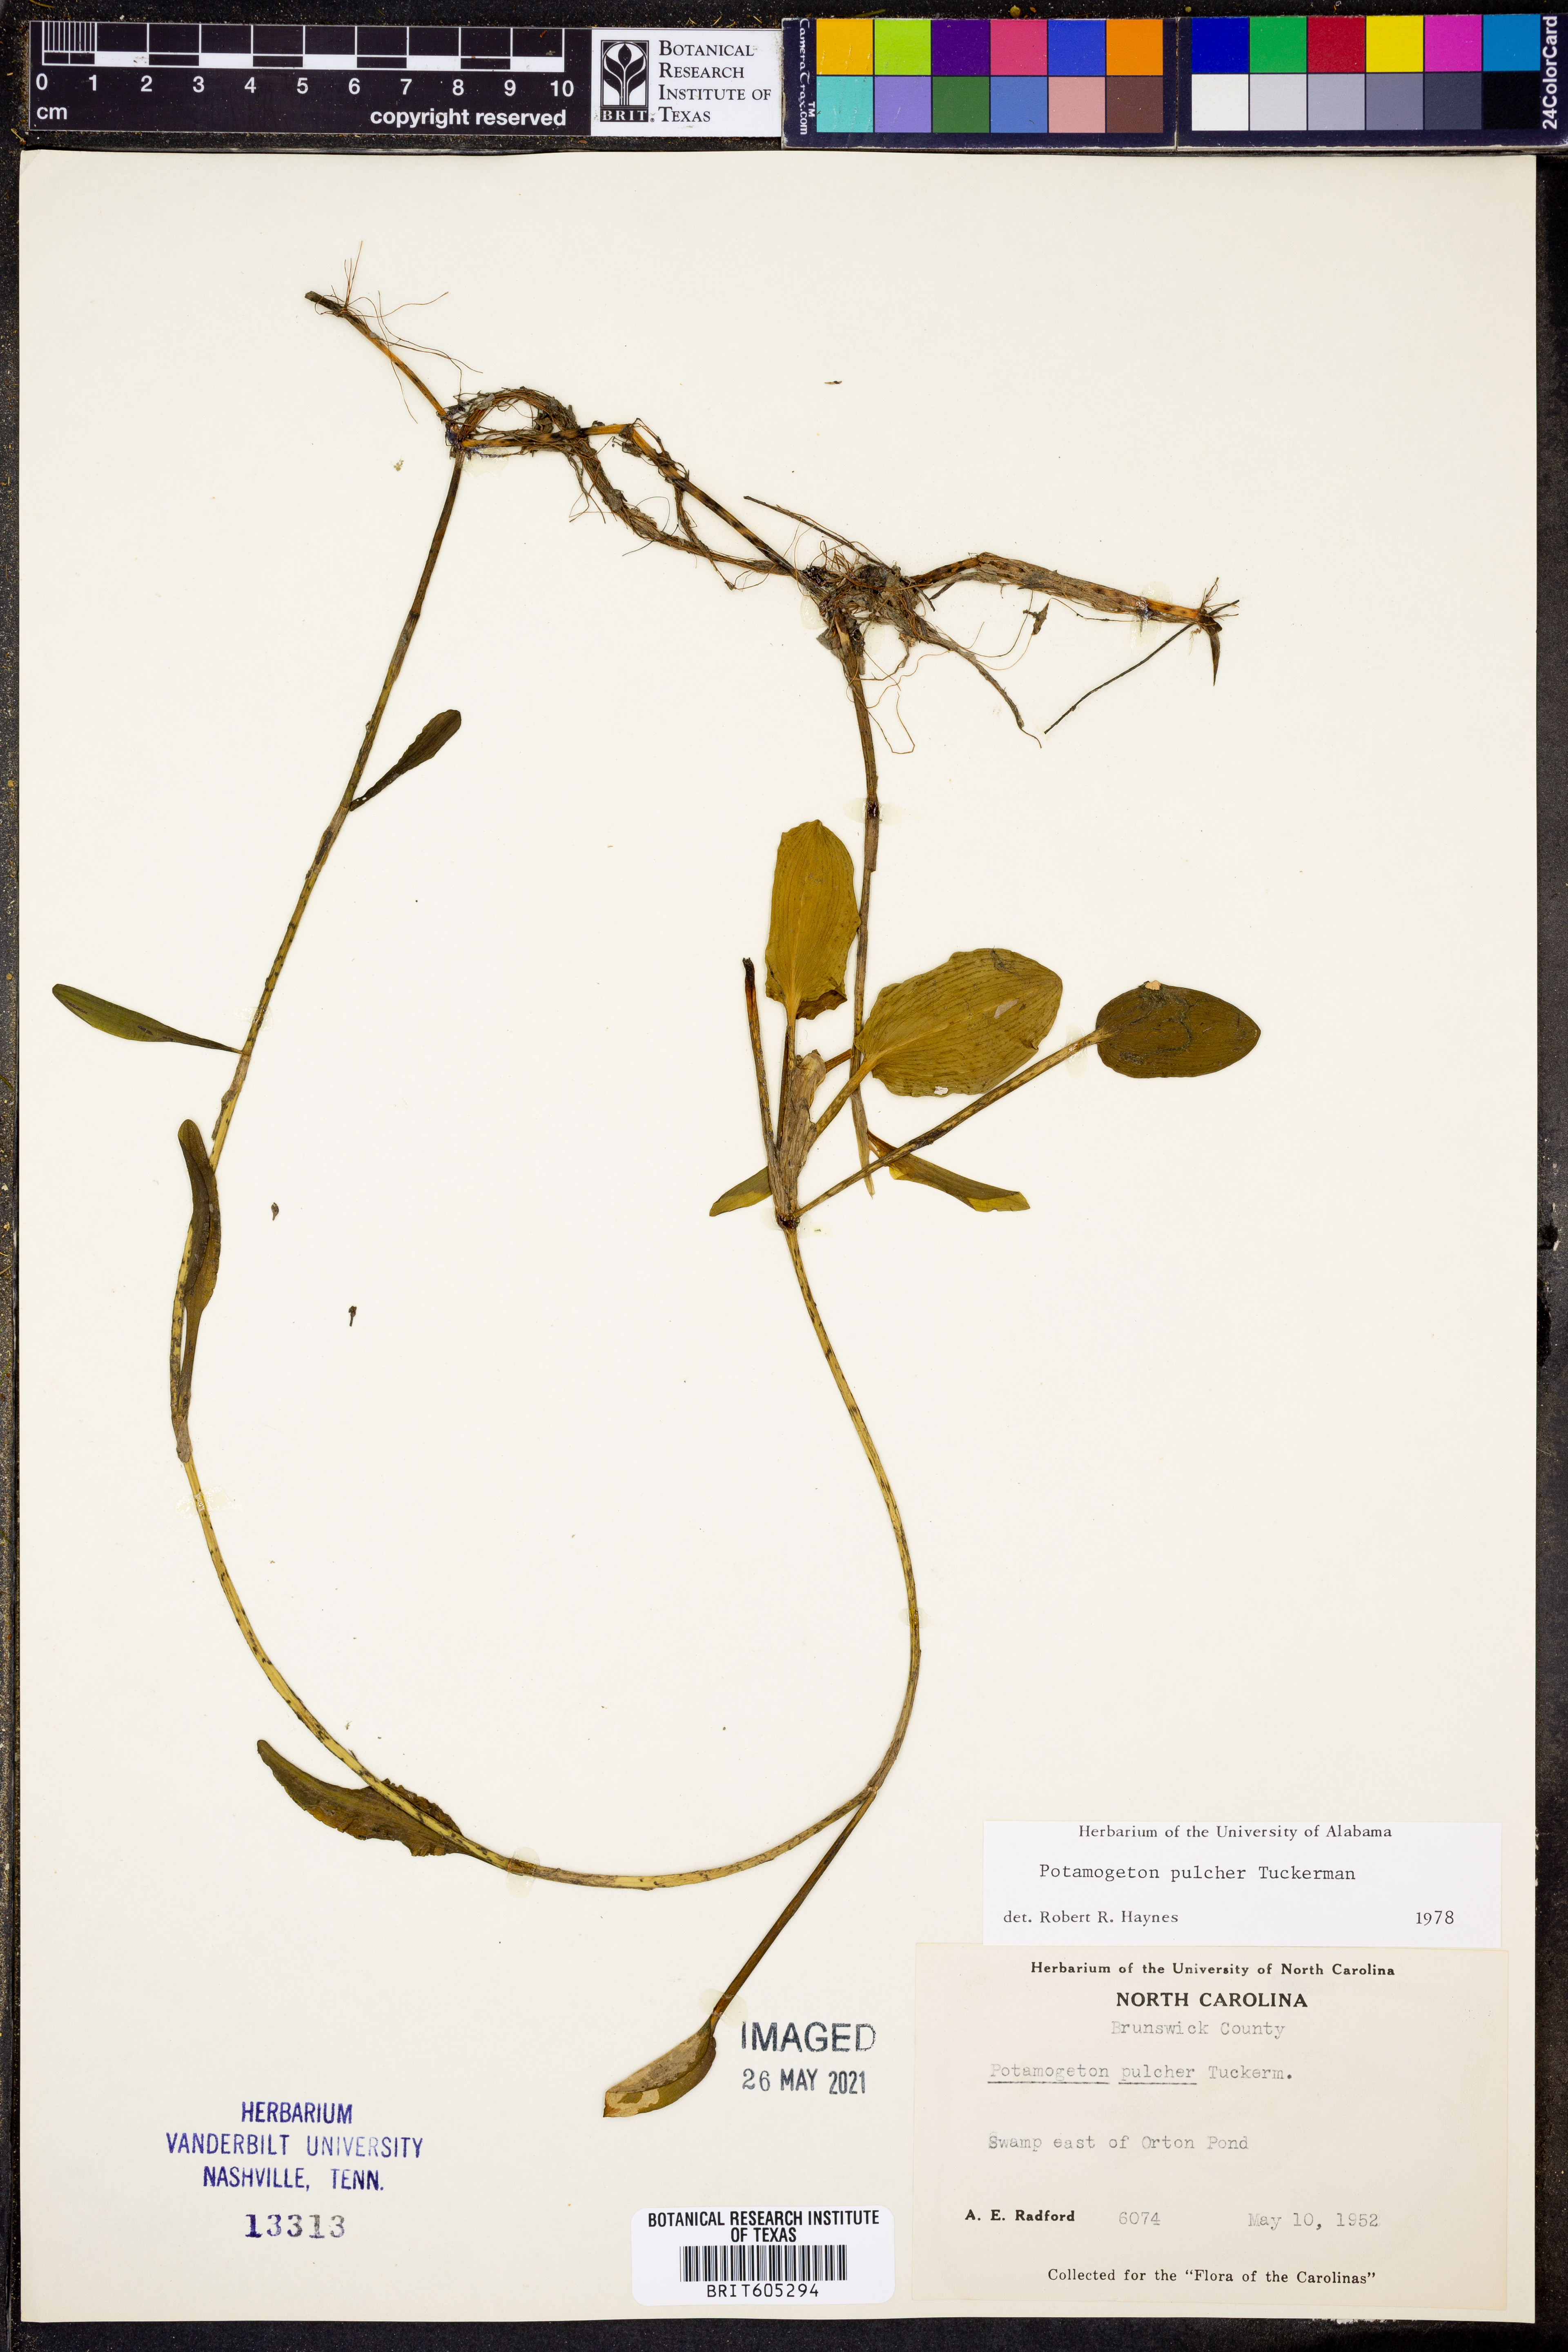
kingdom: Plantae
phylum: Tracheophyta
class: Liliopsida
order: Alismatales
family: Potamogetonaceae
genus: Potamogeton
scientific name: Potamogeton pulcher
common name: Heart-leaved pondweed
